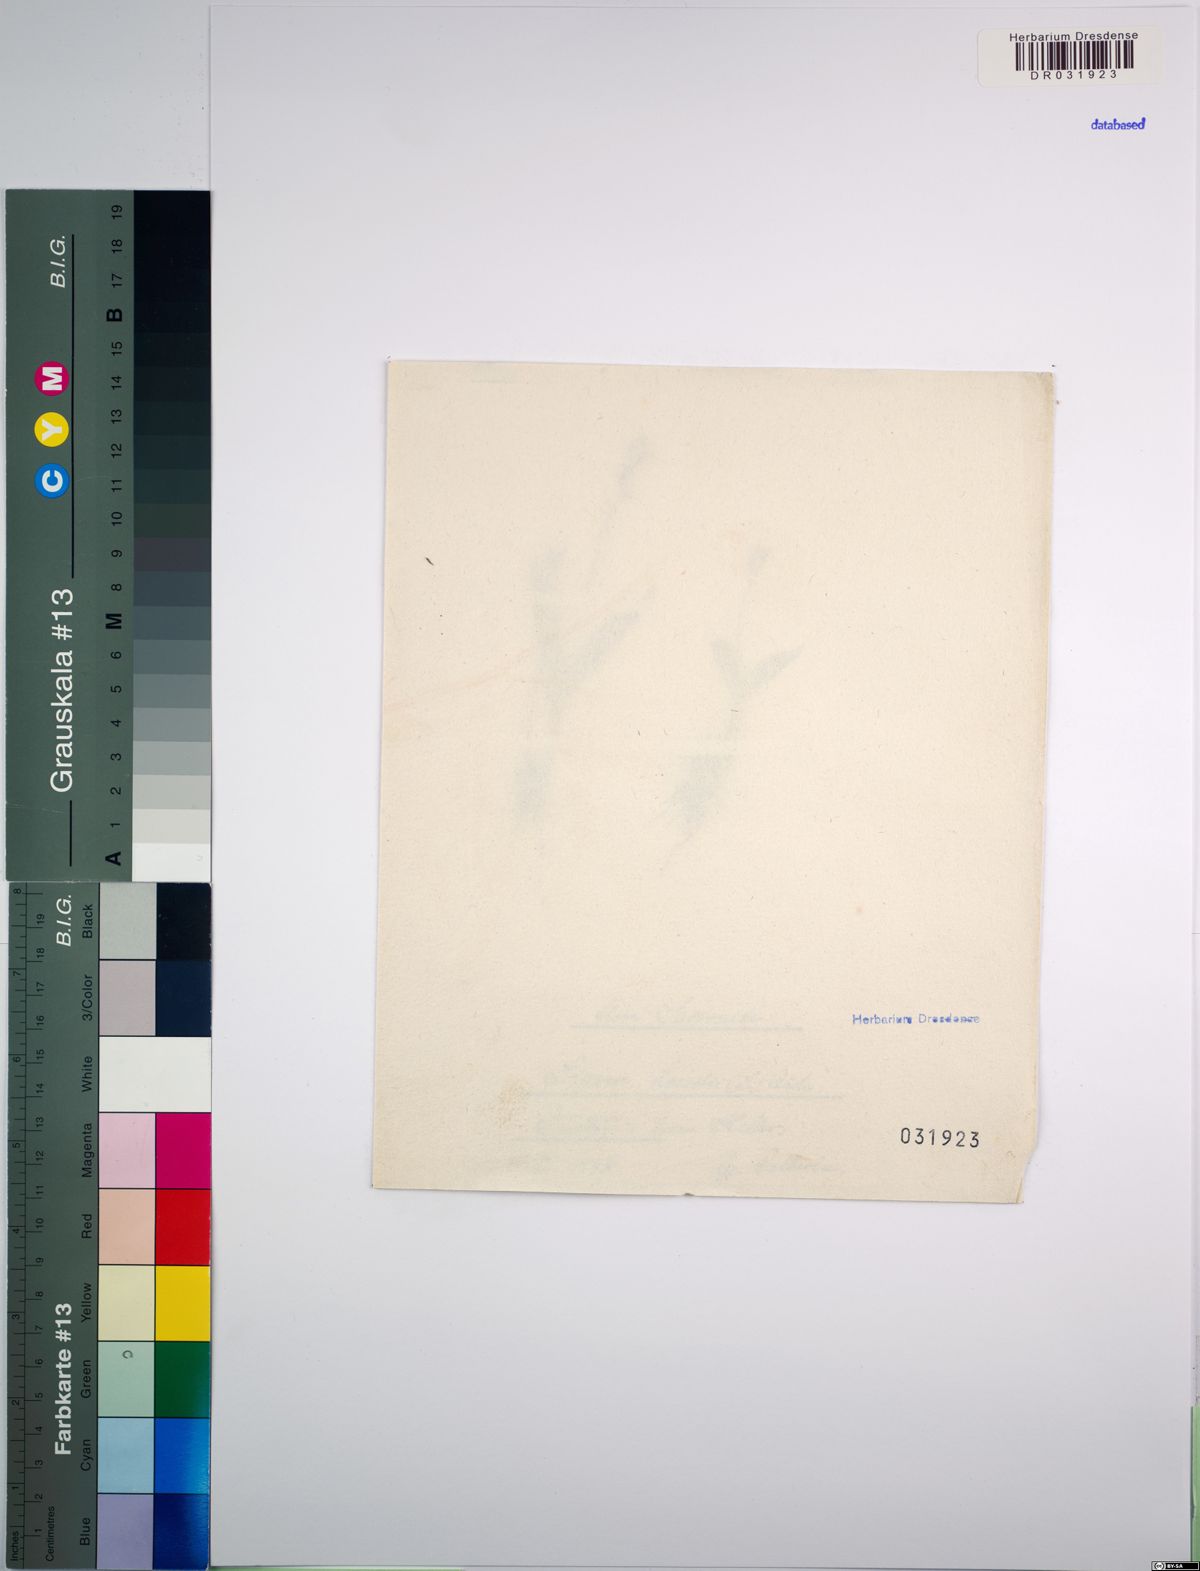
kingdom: Animalia
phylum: Arthropoda
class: Insecta
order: Coleoptera
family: Curculionidae
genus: Liparis
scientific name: Liparis loeselii
